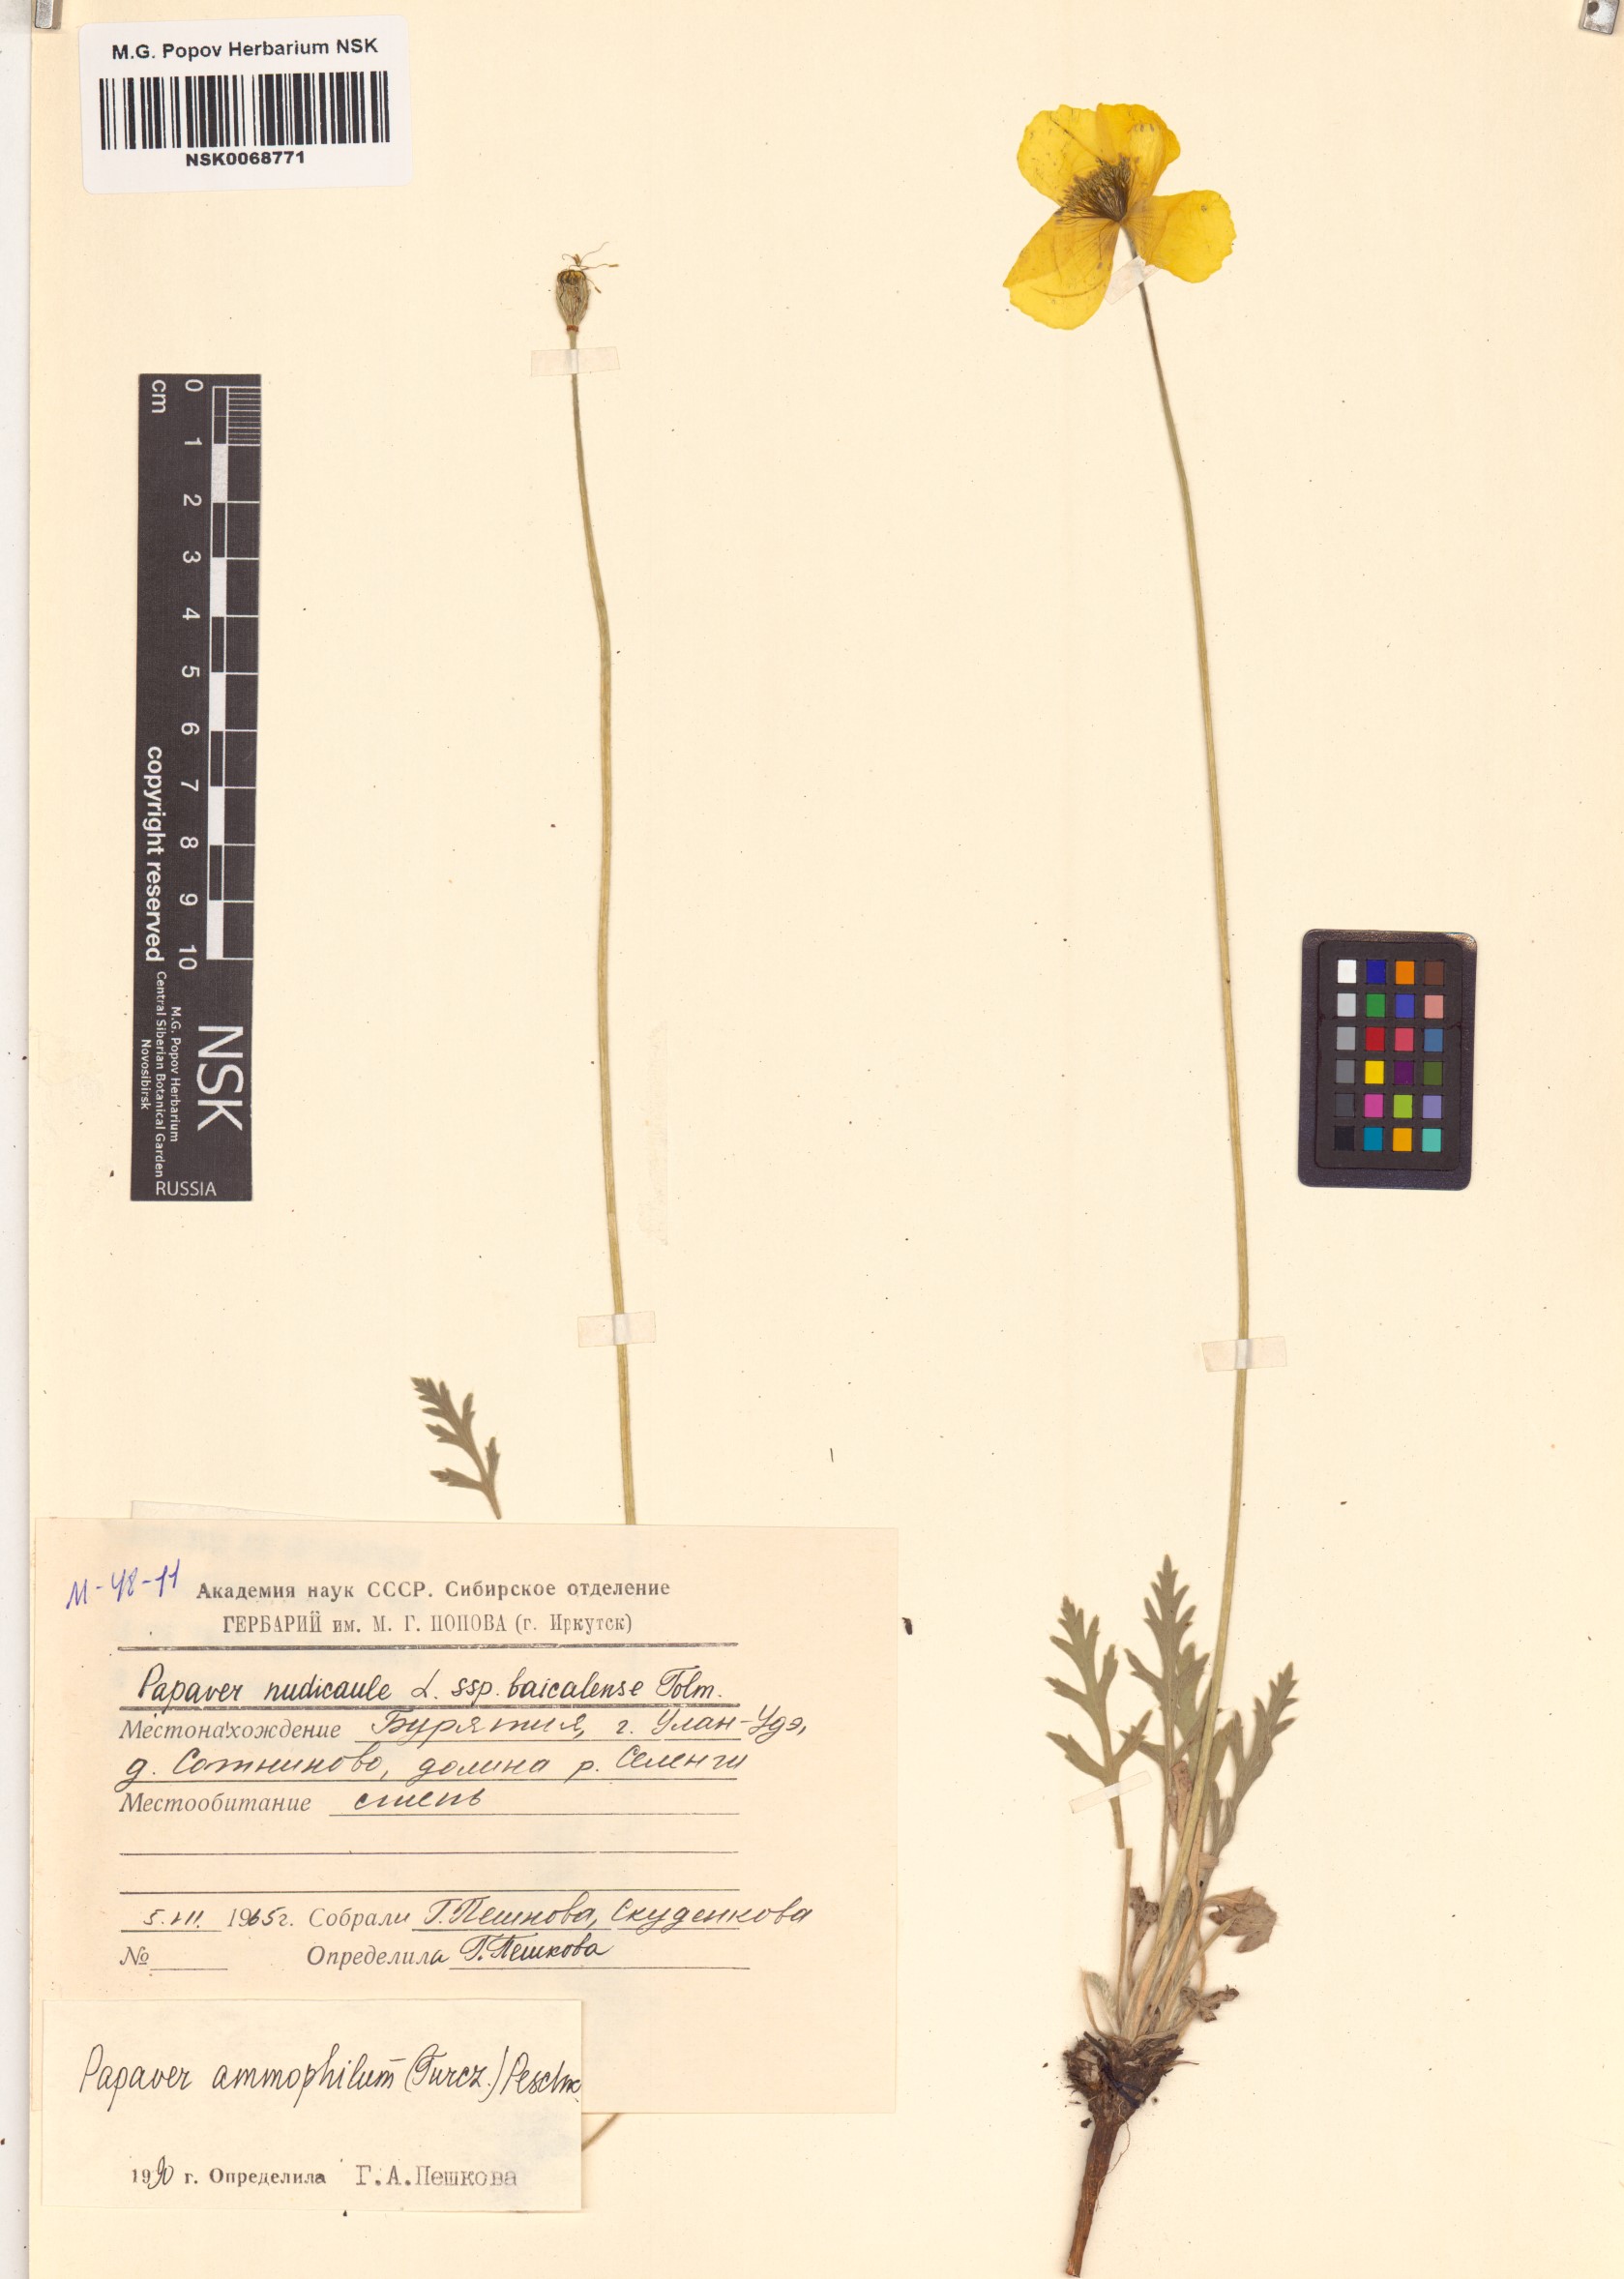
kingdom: Plantae
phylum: Tracheophyta
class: Magnoliopsida
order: Ranunculales
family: Papaveraceae
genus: Papaver
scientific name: Papaver nudicaule
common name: Arctic poppy
